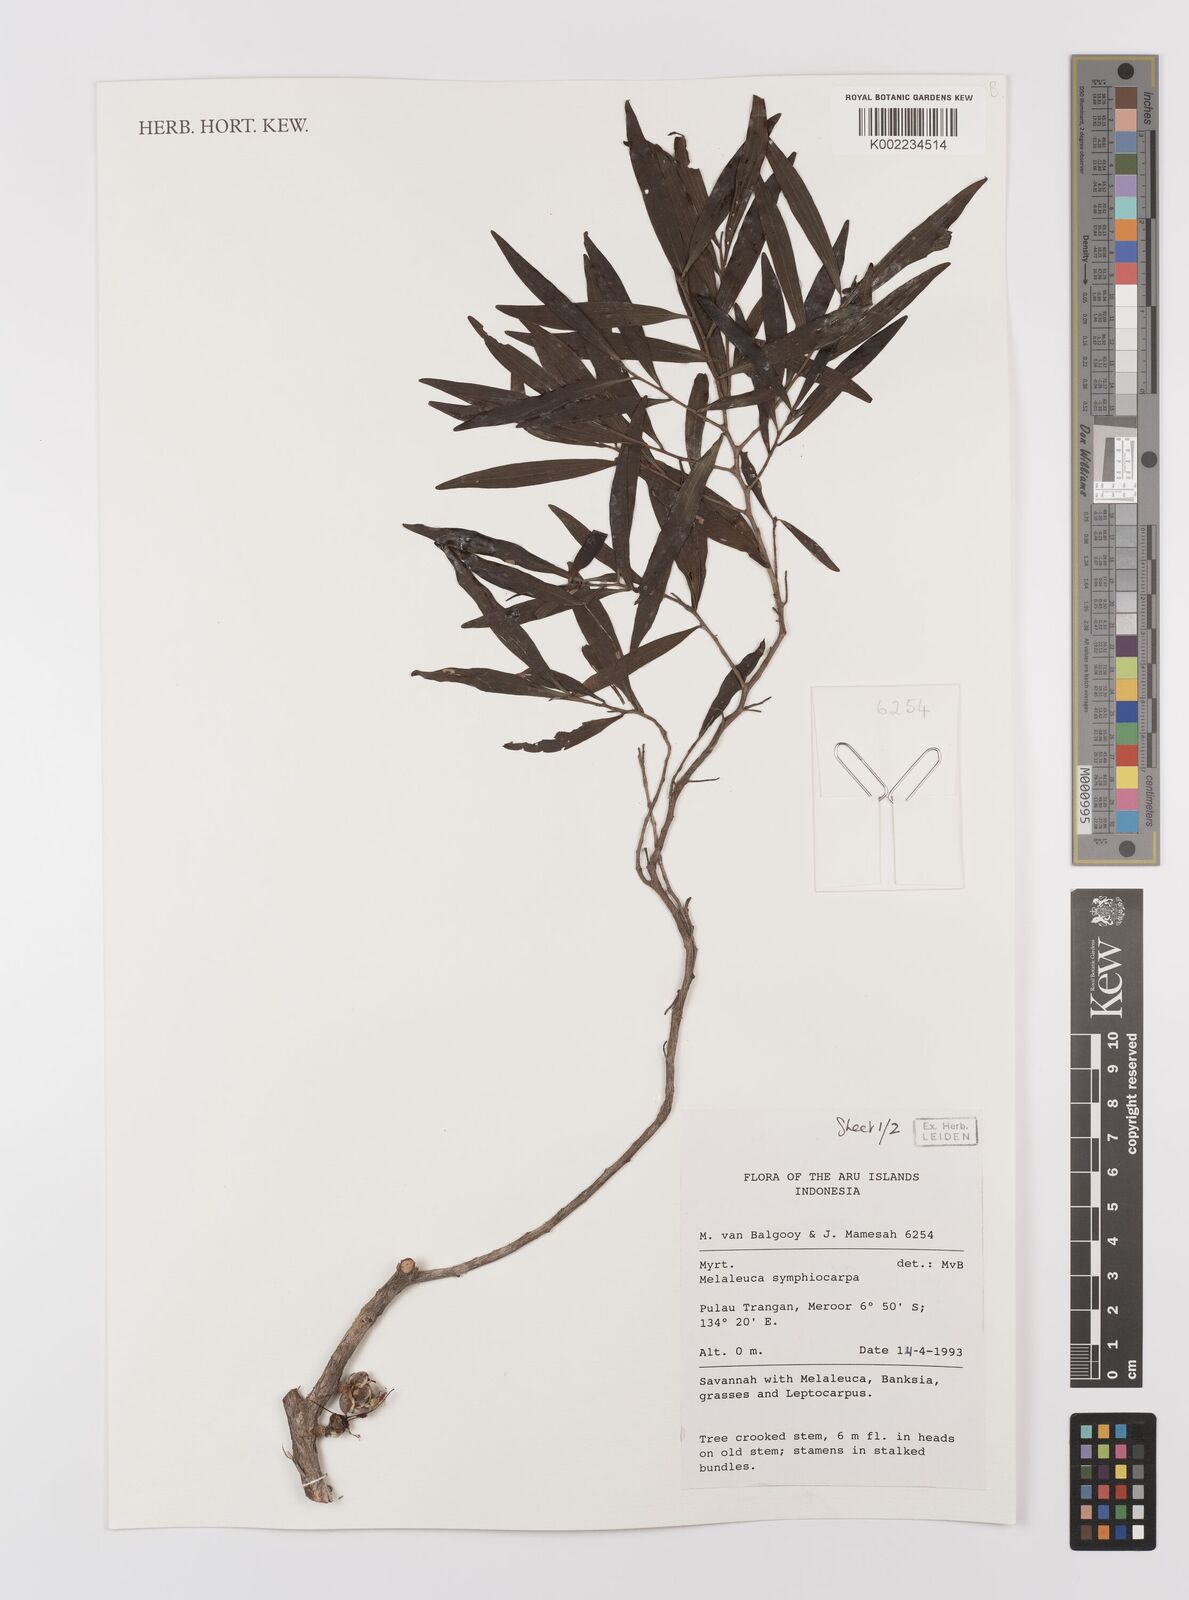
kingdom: Plantae
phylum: Tracheophyta
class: Magnoliopsida
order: Myrtales
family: Myrtaceae
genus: Asteromyrtus
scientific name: Asteromyrtus symphyocarpa
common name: Liniment-tree
